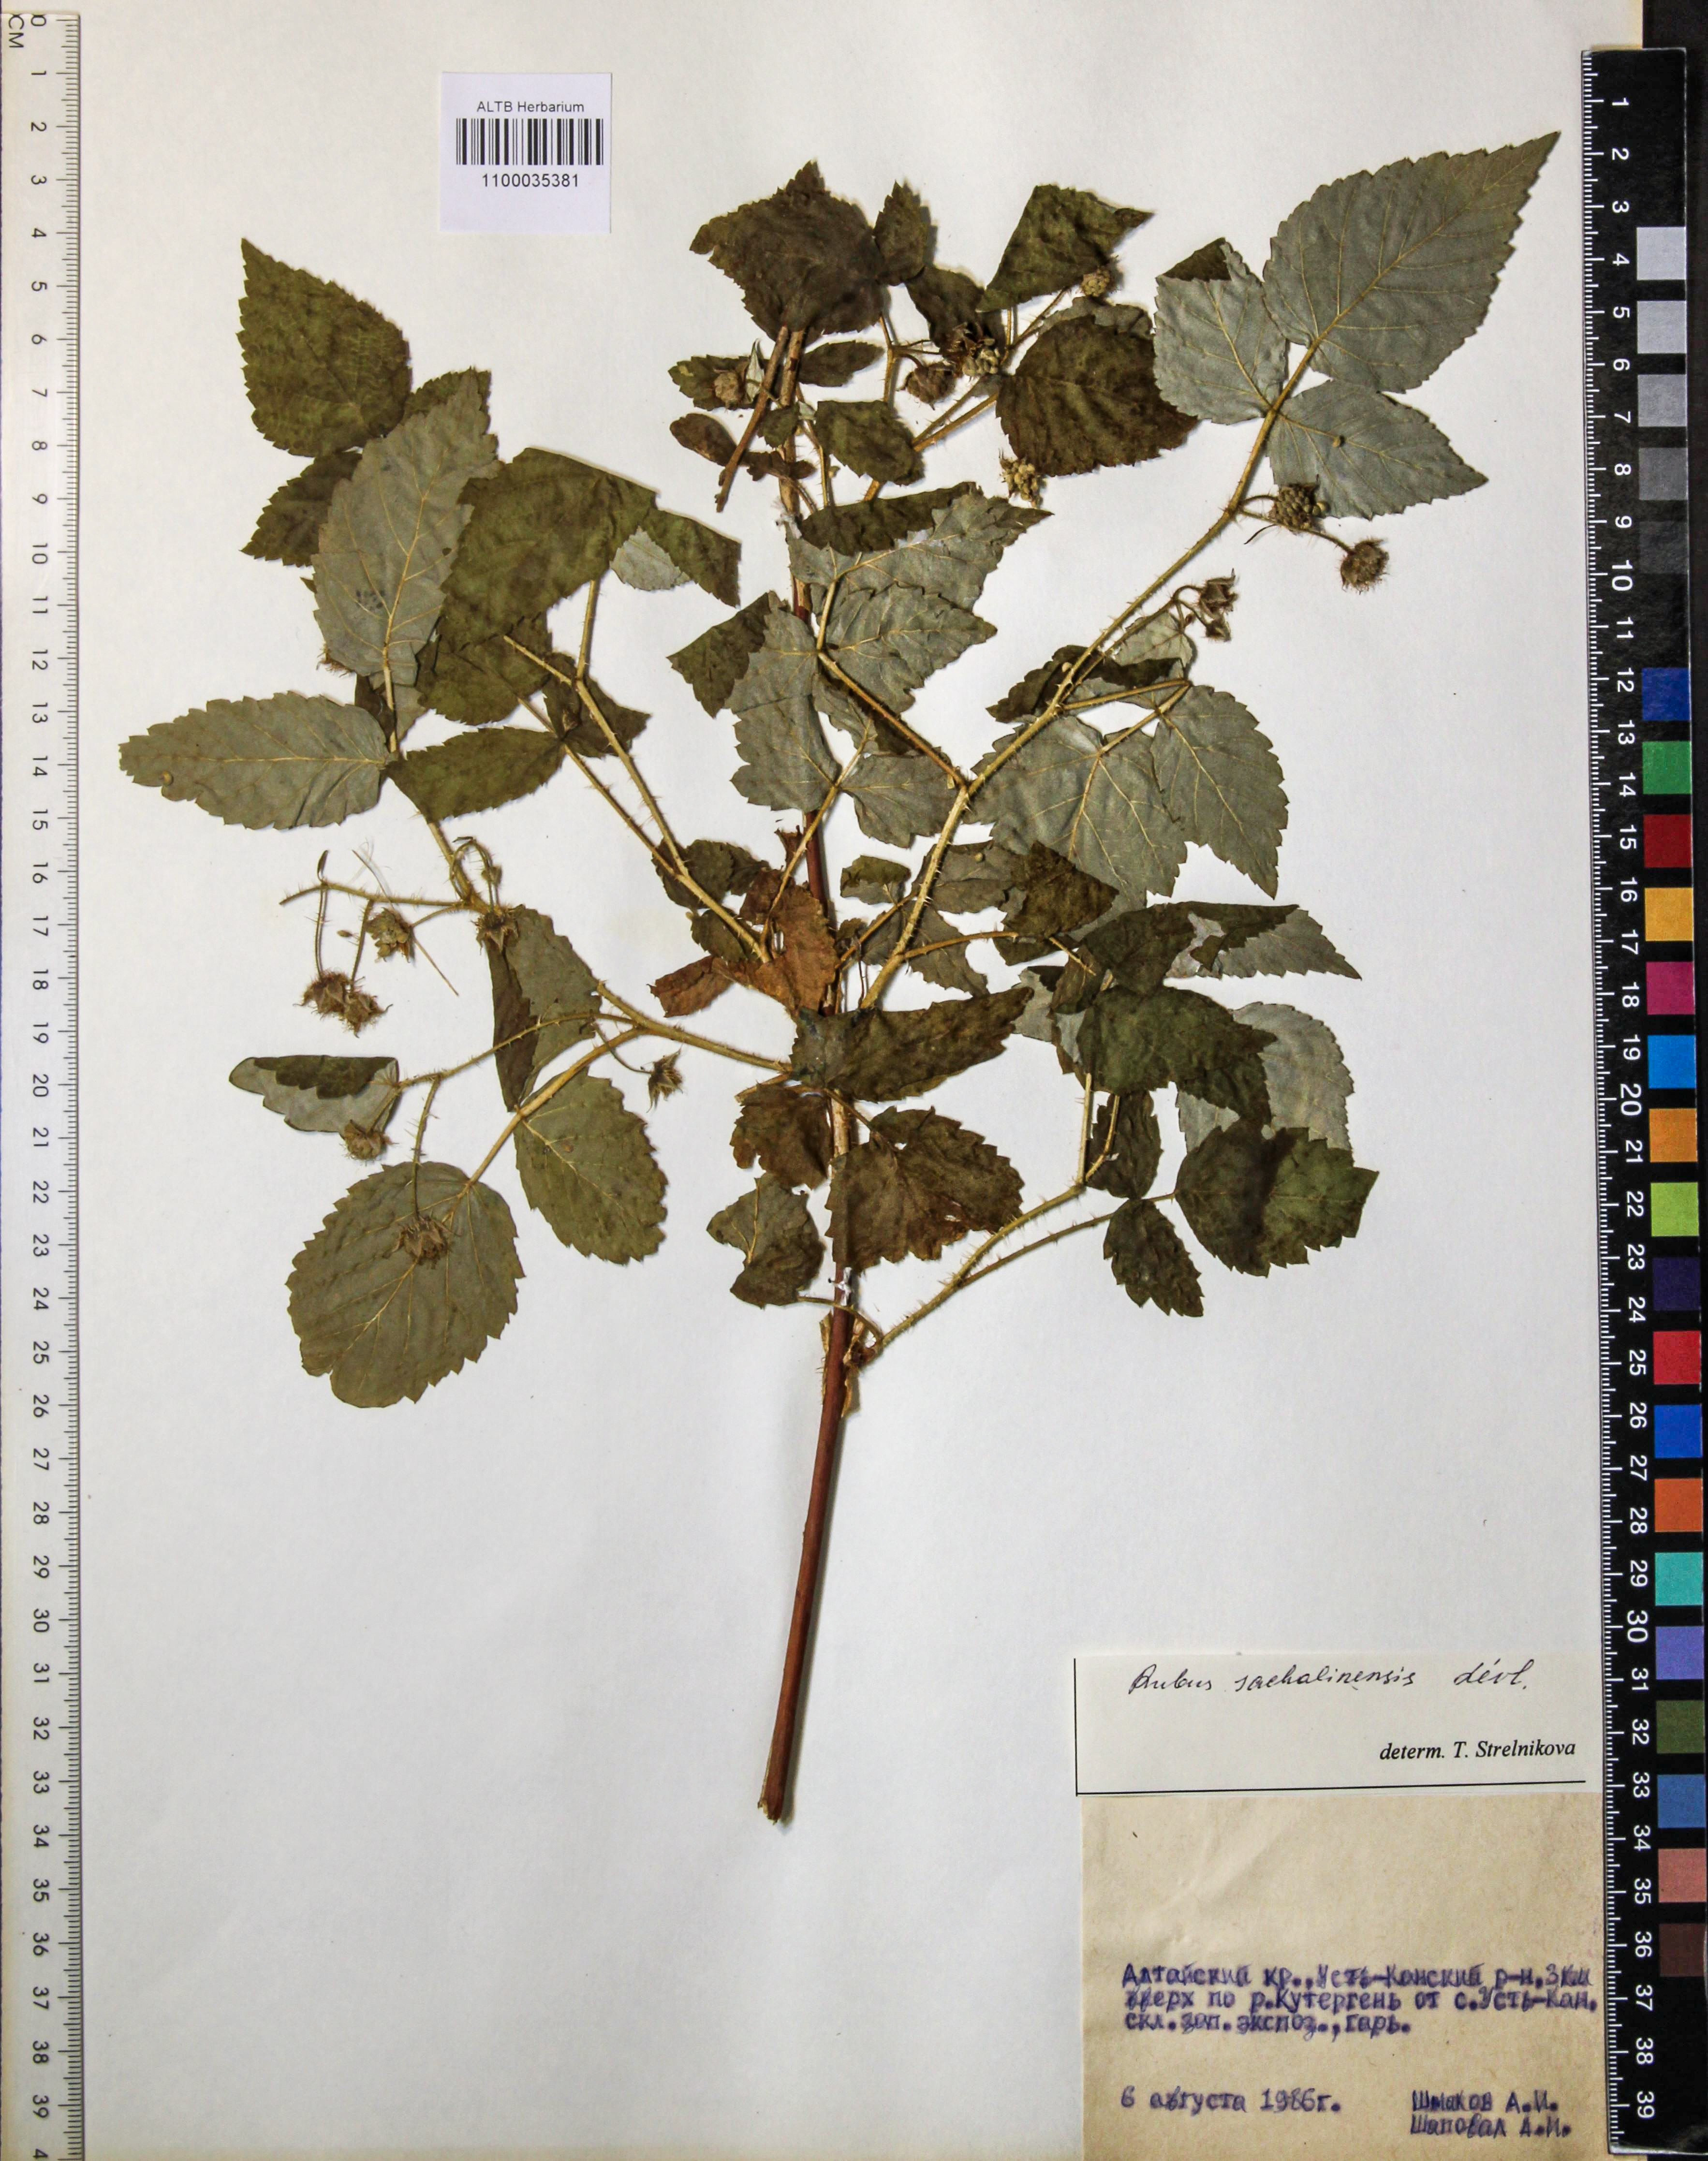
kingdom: Plantae
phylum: Tracheophyta
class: Magnoliopsida
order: Rosales
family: Rosaceae
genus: Rubus
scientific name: Rubus sachalinensis
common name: Red raspberry
